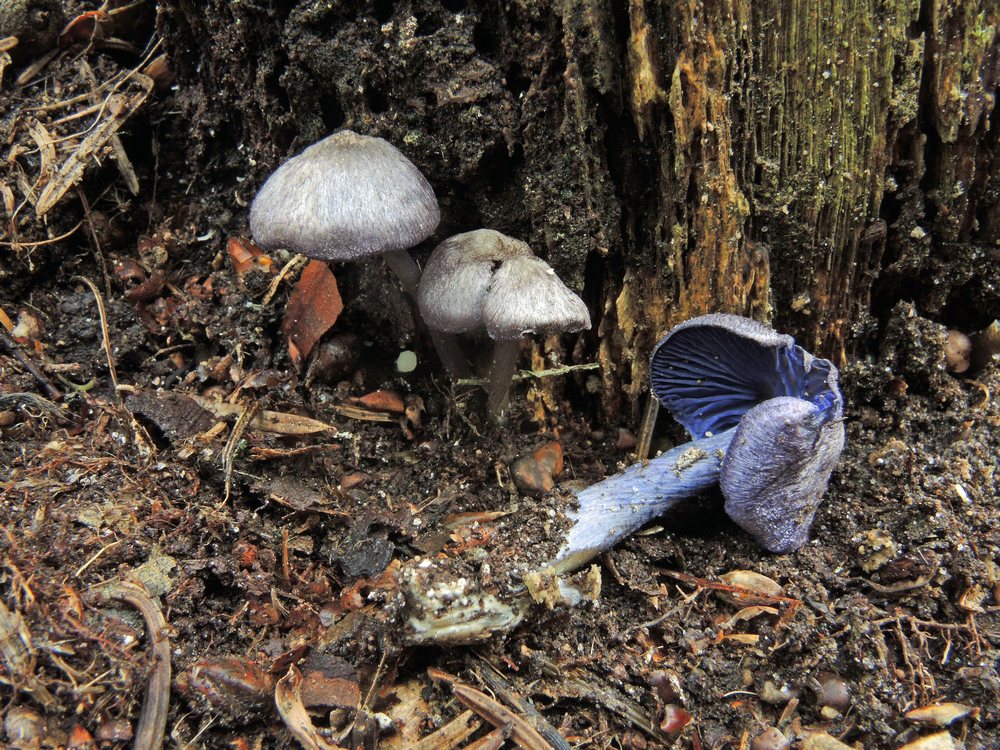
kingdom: Fungi
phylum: Basidiomycota
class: Agaricomycetes
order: Agaricales
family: Entolomataceae
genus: Entoloma
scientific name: Entoloma euchroum
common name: smuk rødblad
